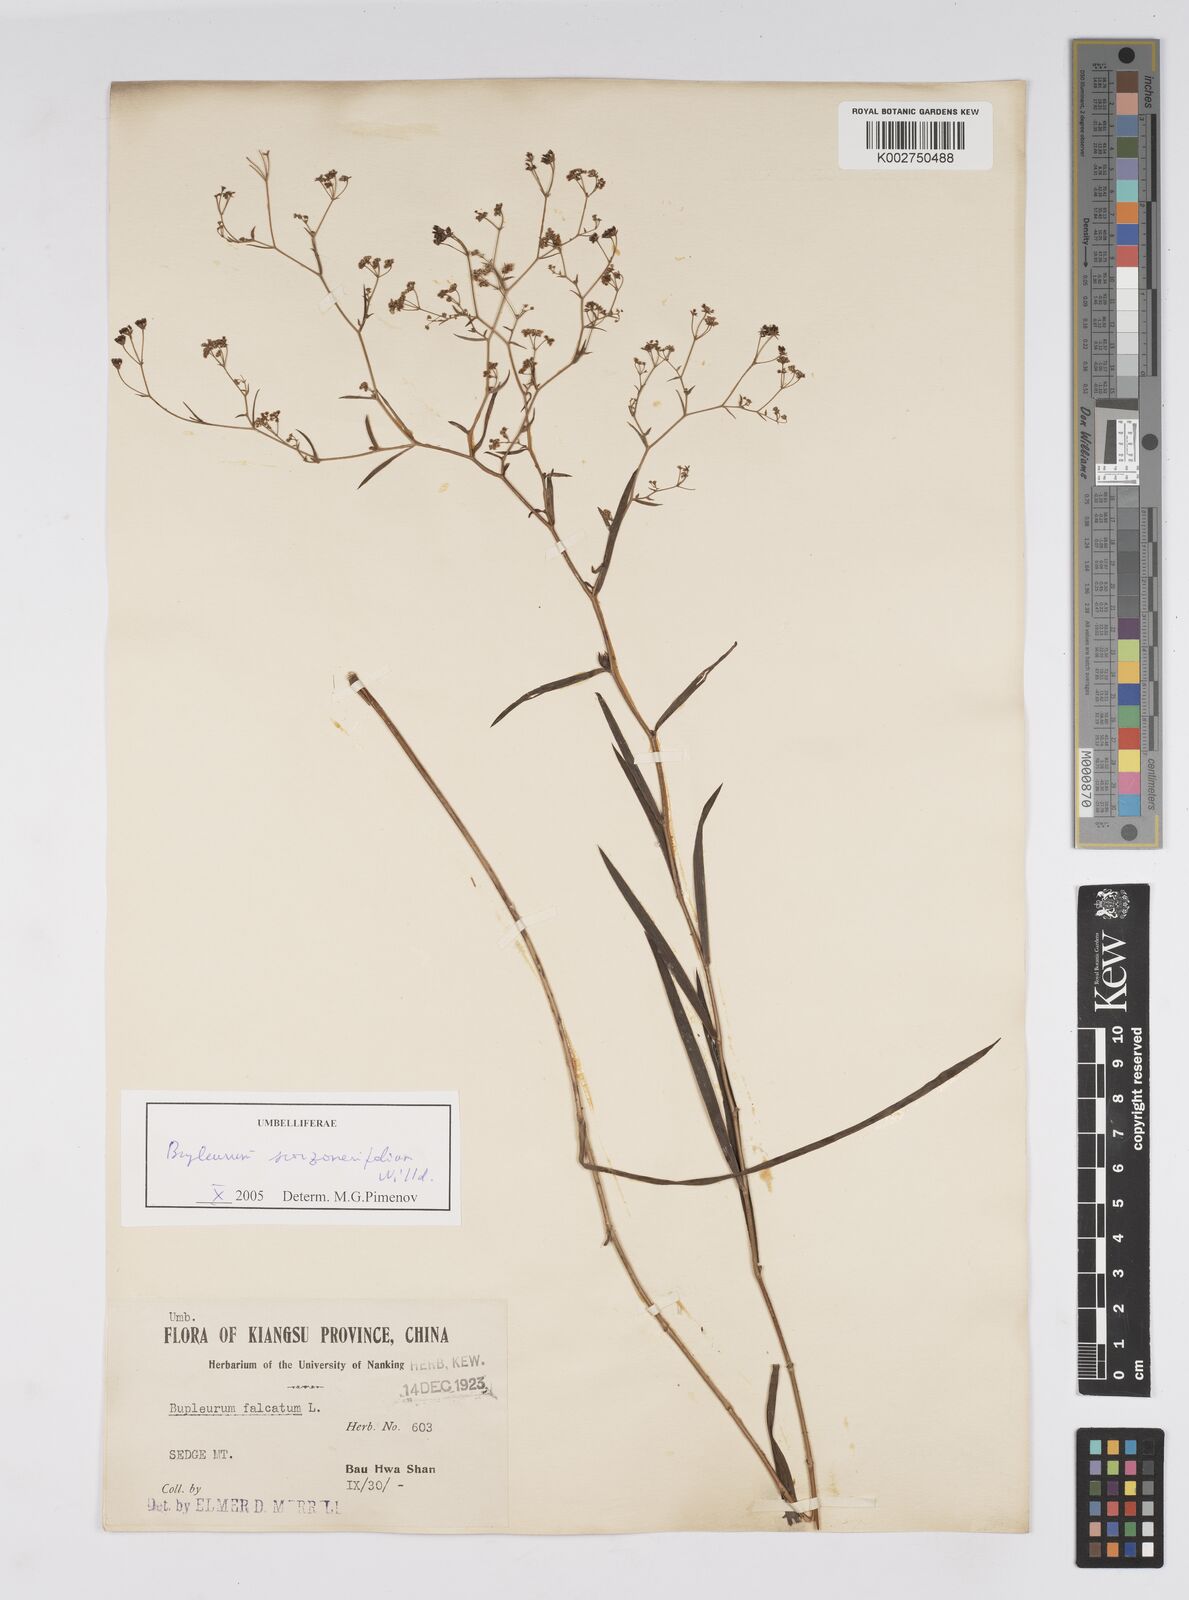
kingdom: Plantae
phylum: Tracheophyta
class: Magnoliopsida
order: Apiales
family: Apiaceae
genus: Bupleurum
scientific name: Bupleurum krylovianum
